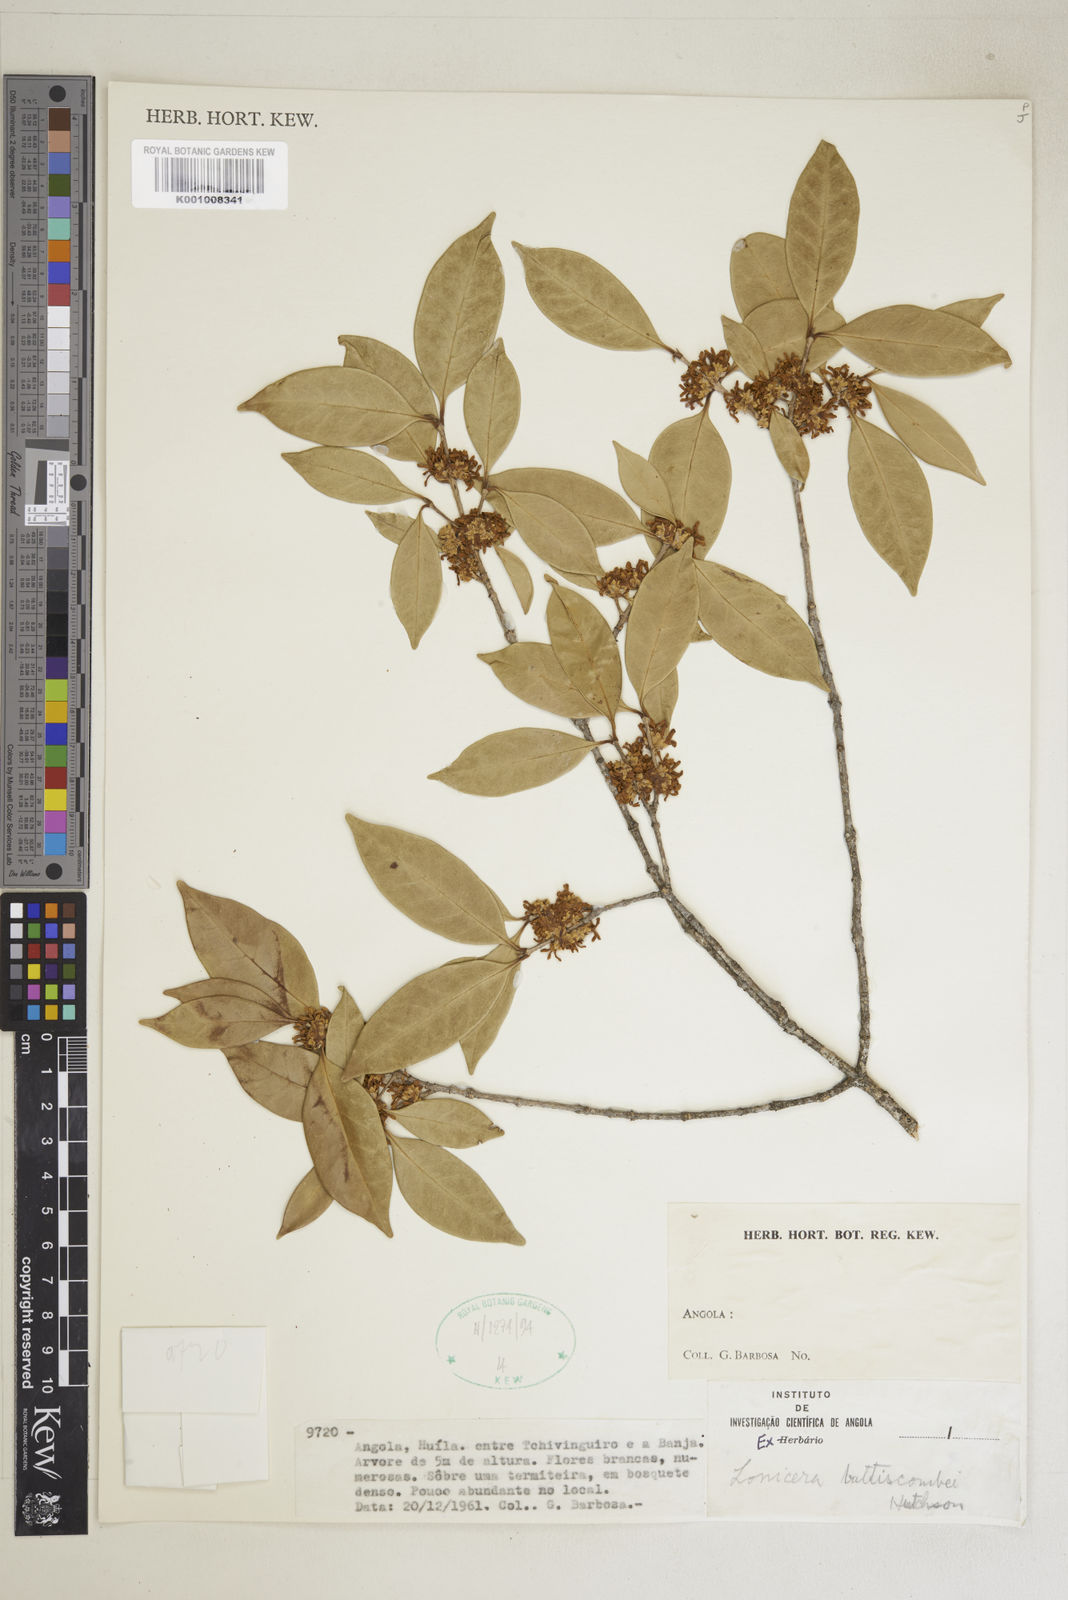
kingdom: Plantae
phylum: Tracheophyta
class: Magnoliopsida
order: Lamiales
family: Oleaceae
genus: Noronhia
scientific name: Noronhia battiscombei
